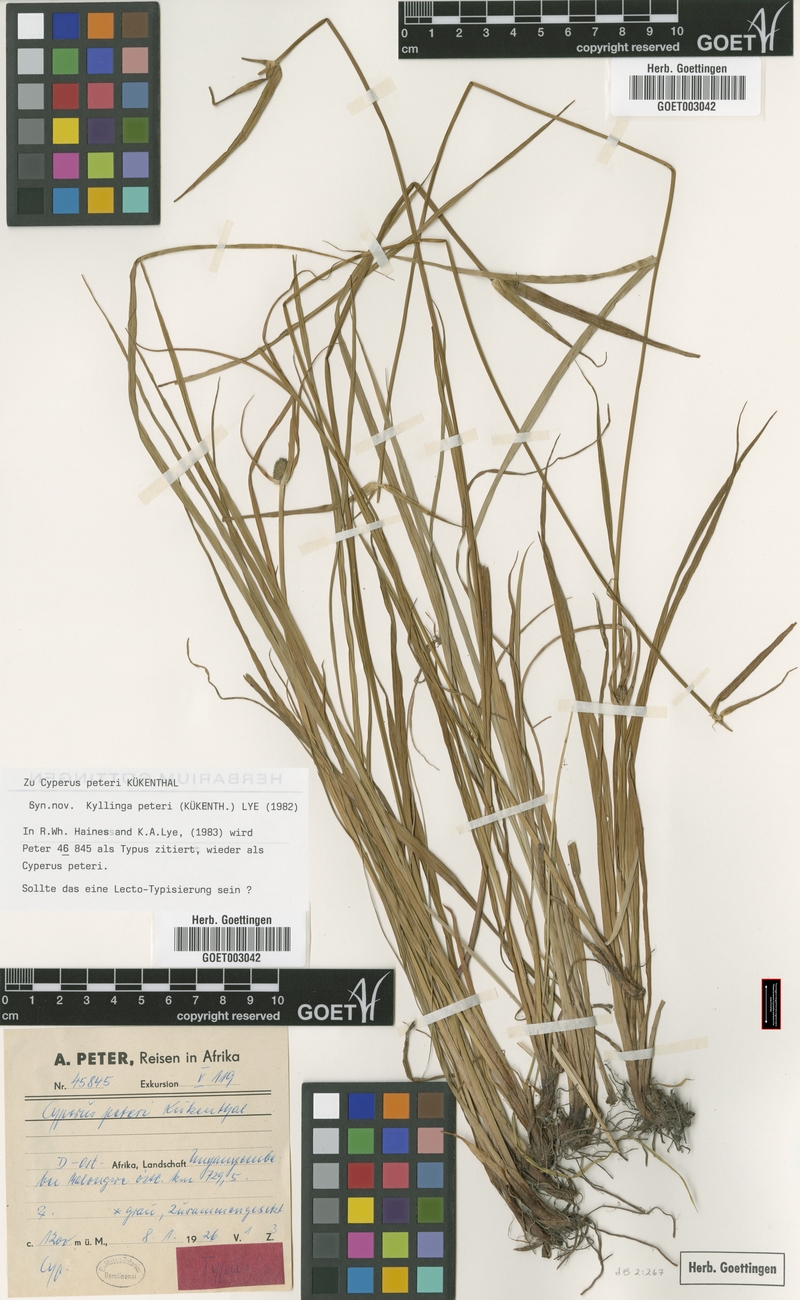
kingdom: Plantae
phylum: Tracheophyta
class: Liliopsida
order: Poales
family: Cyperaceae
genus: Cyperus
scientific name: Cyperus peteri
